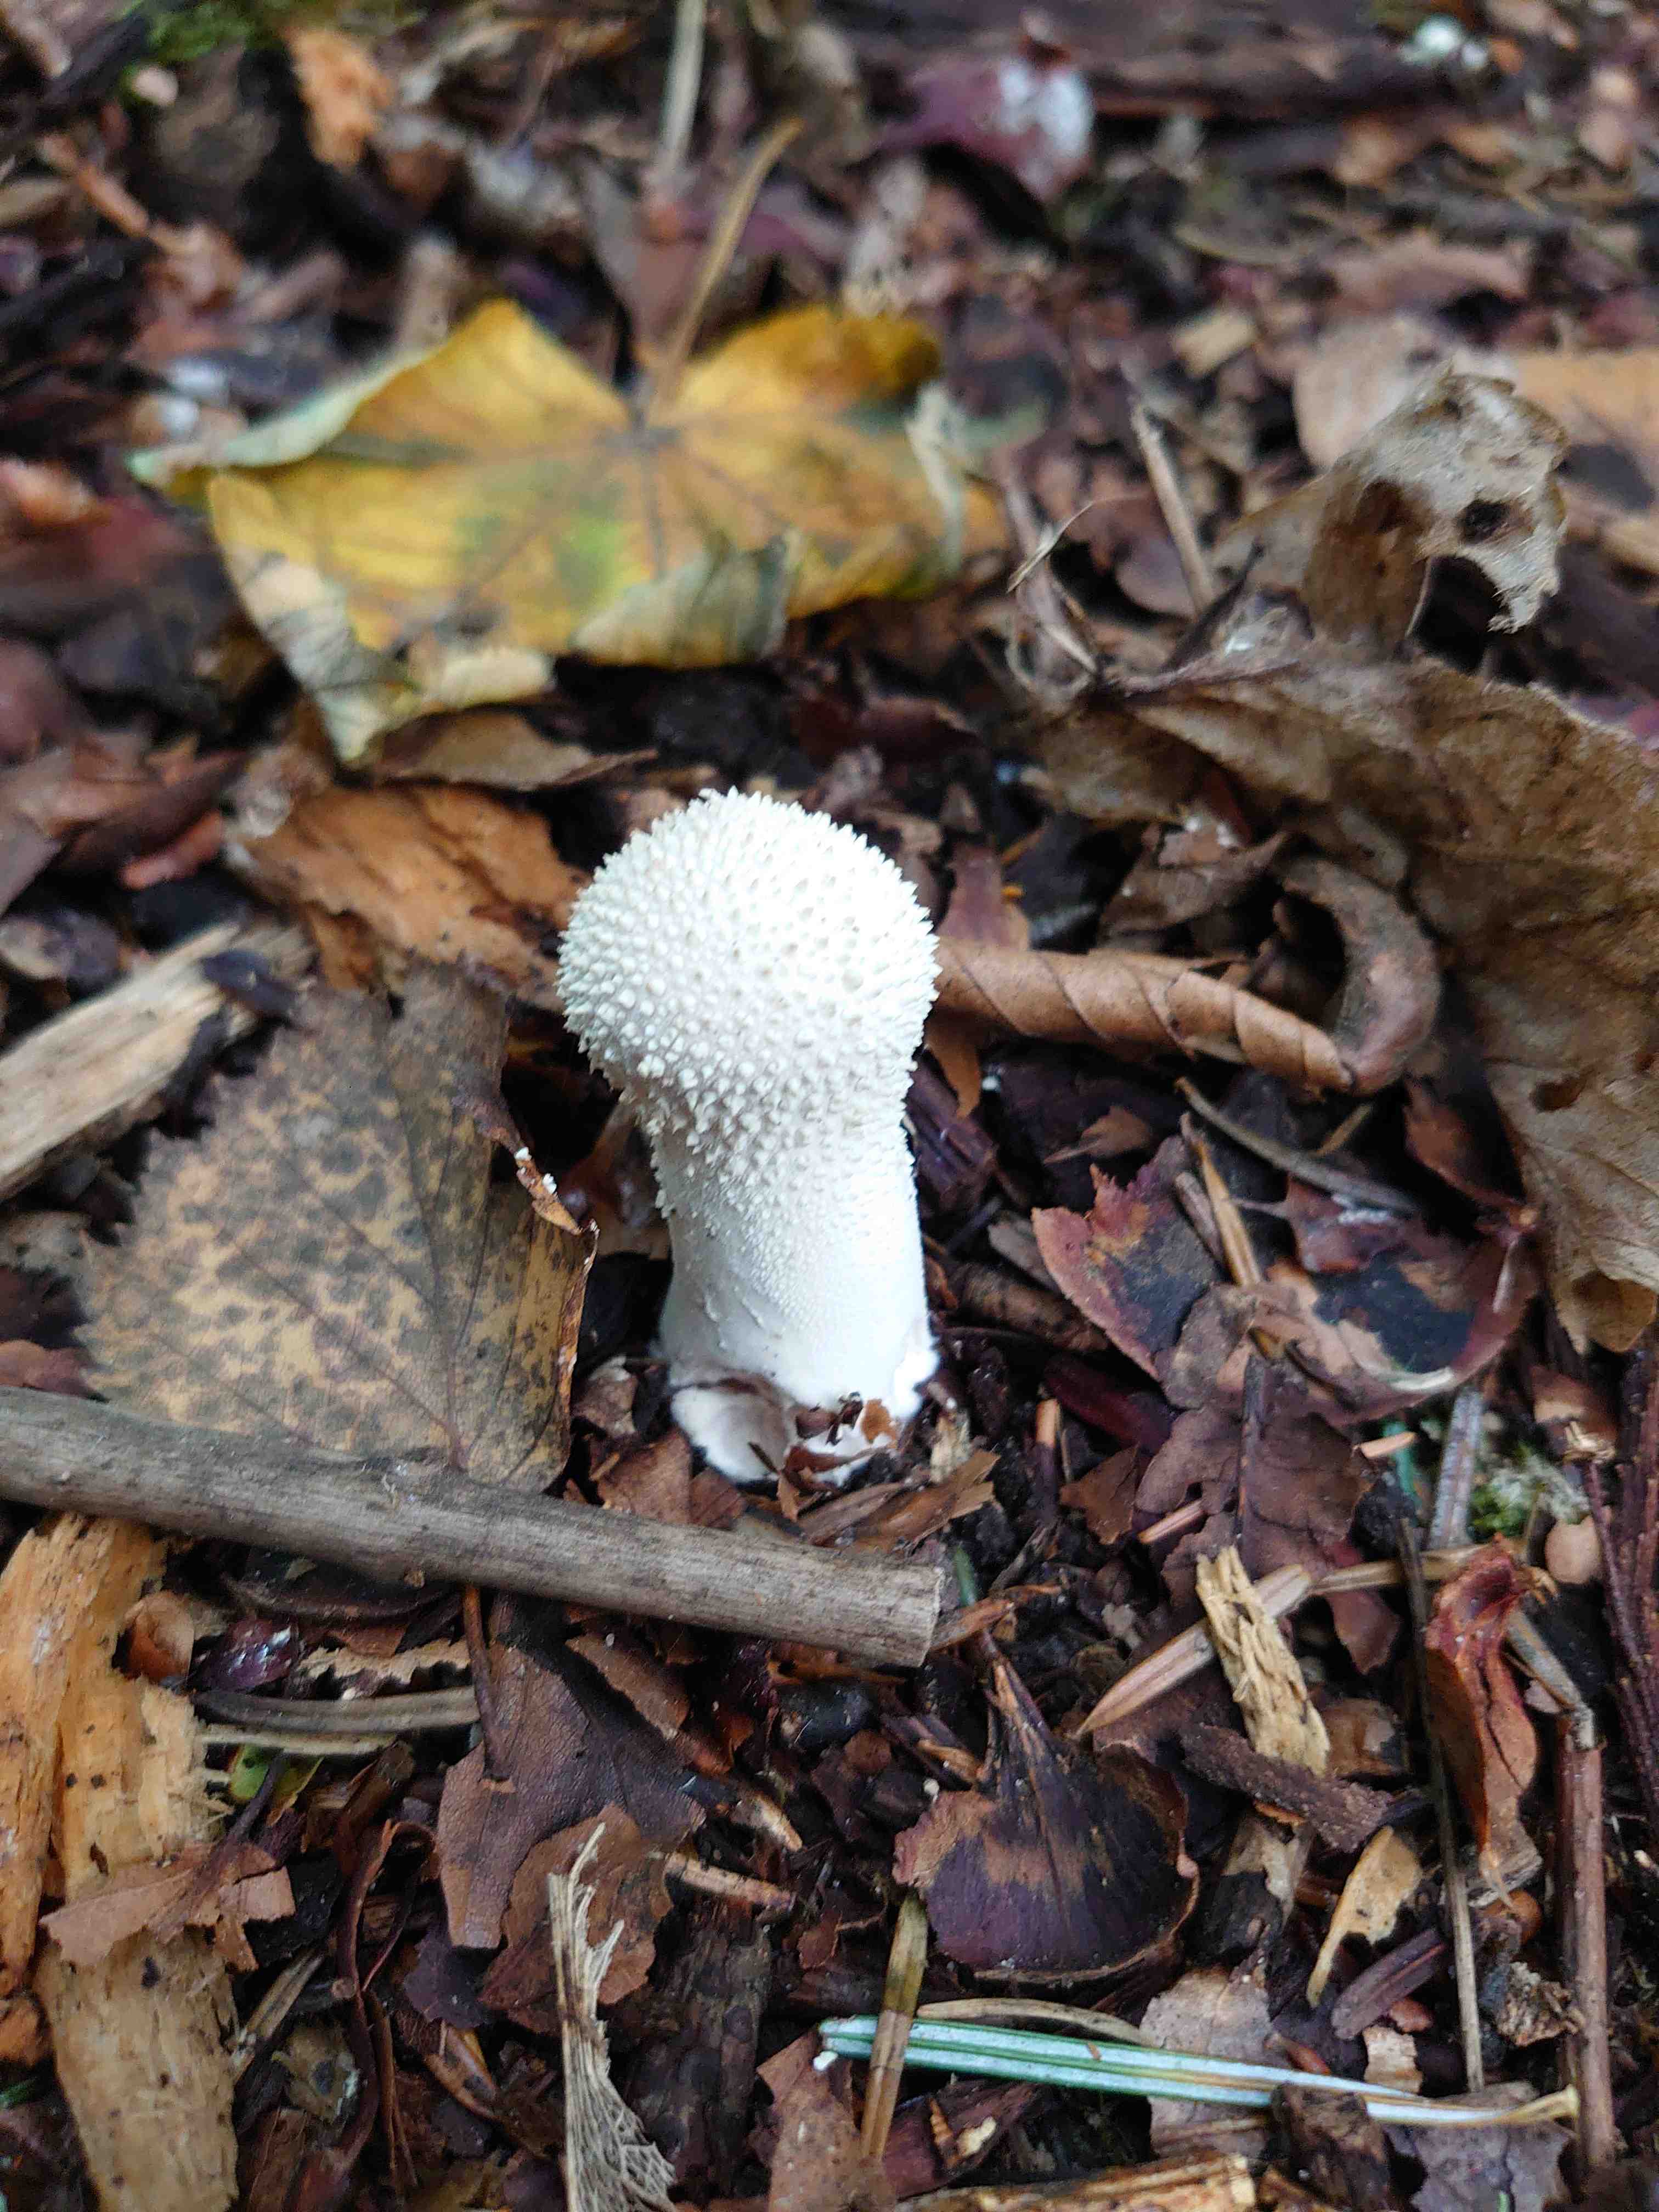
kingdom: Fungi
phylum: Basidiomycota
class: Agaricomycetes
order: Agaricales
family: Lycoperdaceae
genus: Lycoperdon
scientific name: Lycoperdon perlatum
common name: krystal-støvbold
